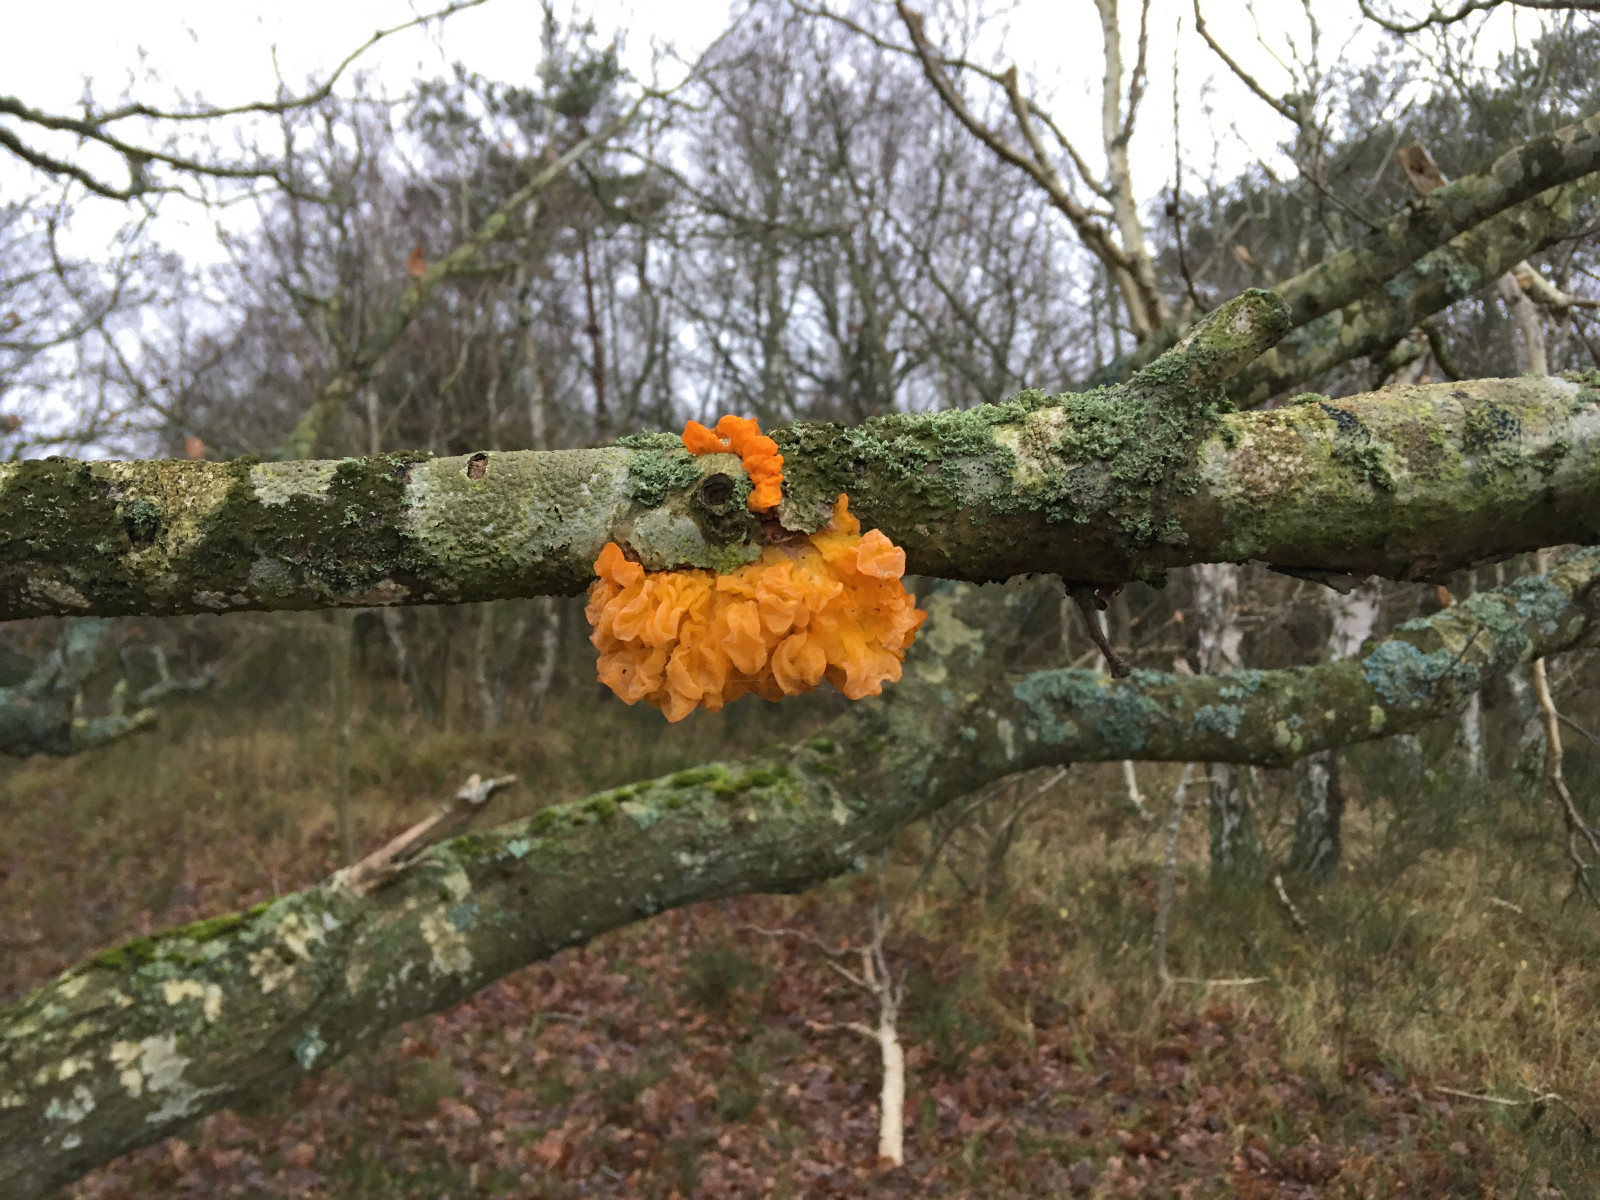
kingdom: Fungi
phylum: Basidiomycota
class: Tremellomycetes
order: Tremellales
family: Tremellaceae
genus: Tremella
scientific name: Tremella mesenterica
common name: gul bævresvamp
